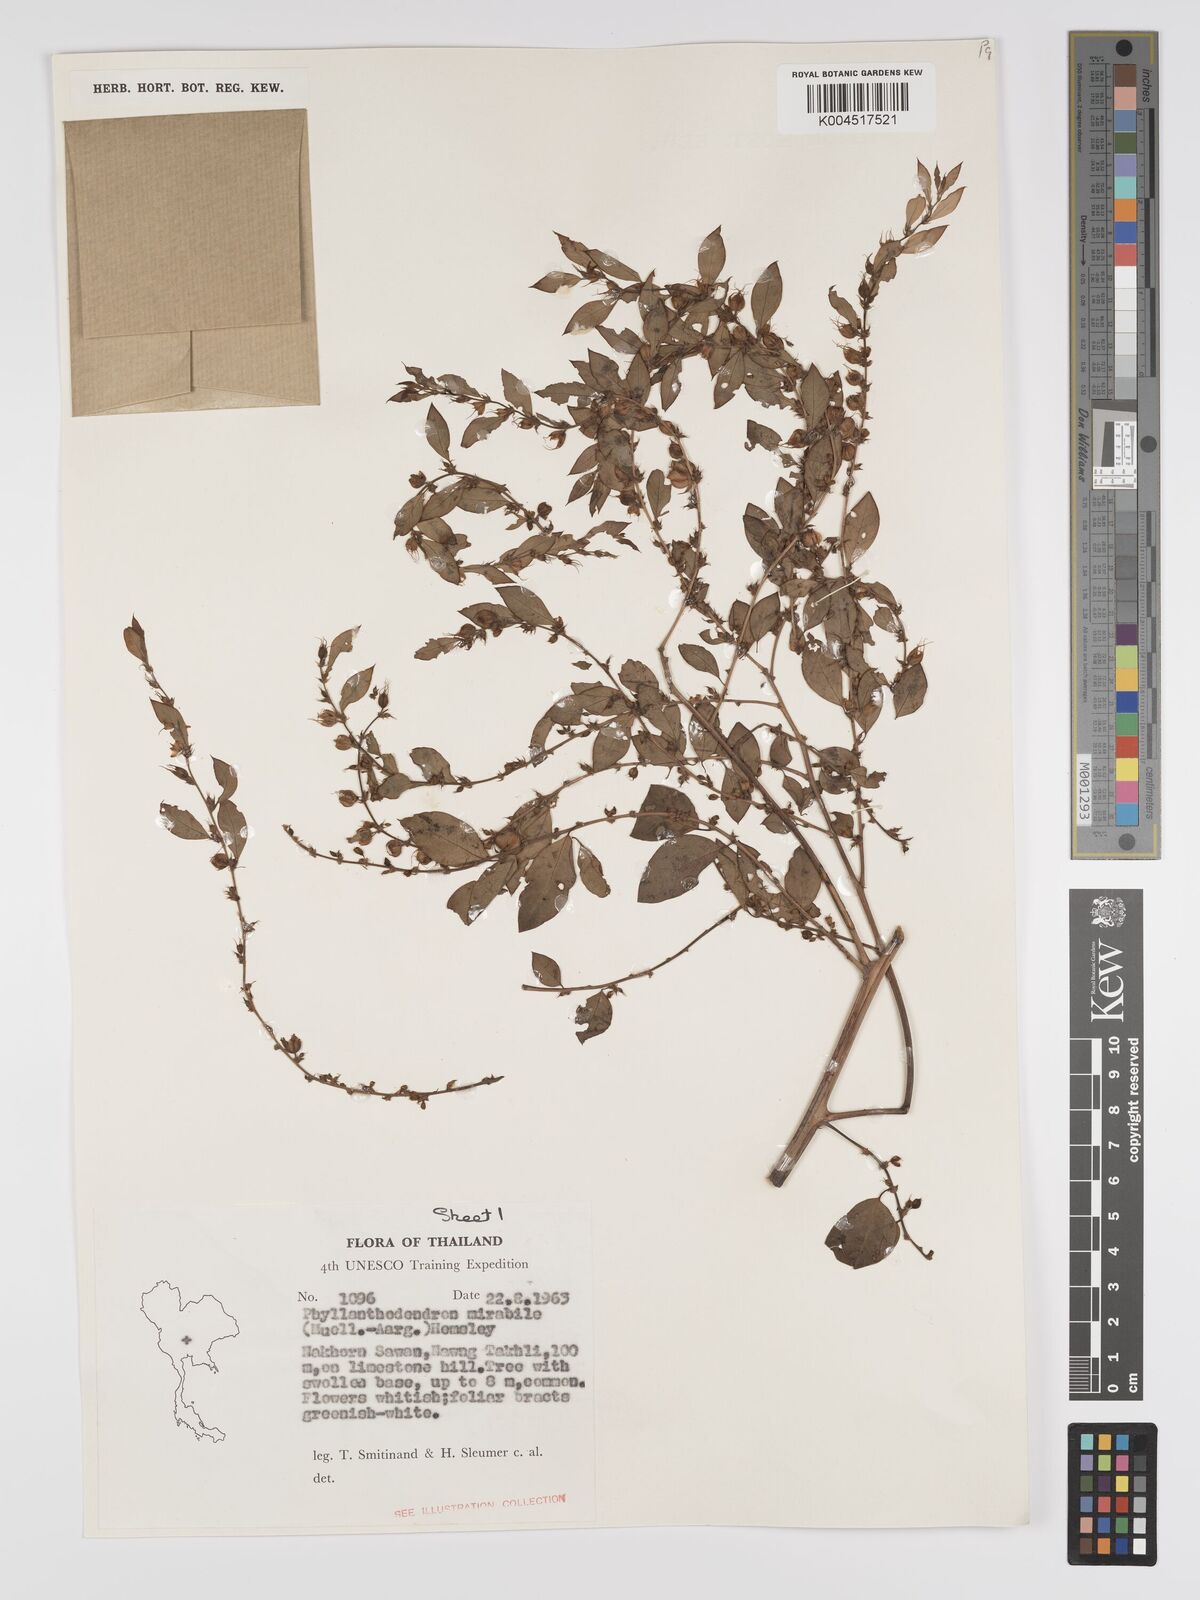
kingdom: Plantae
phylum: Tracheophyta
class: Magnoliopsida
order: Malpighiales
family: Phyllanthaceae
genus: Phyllanthus
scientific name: Phyllanthus mirabilis
